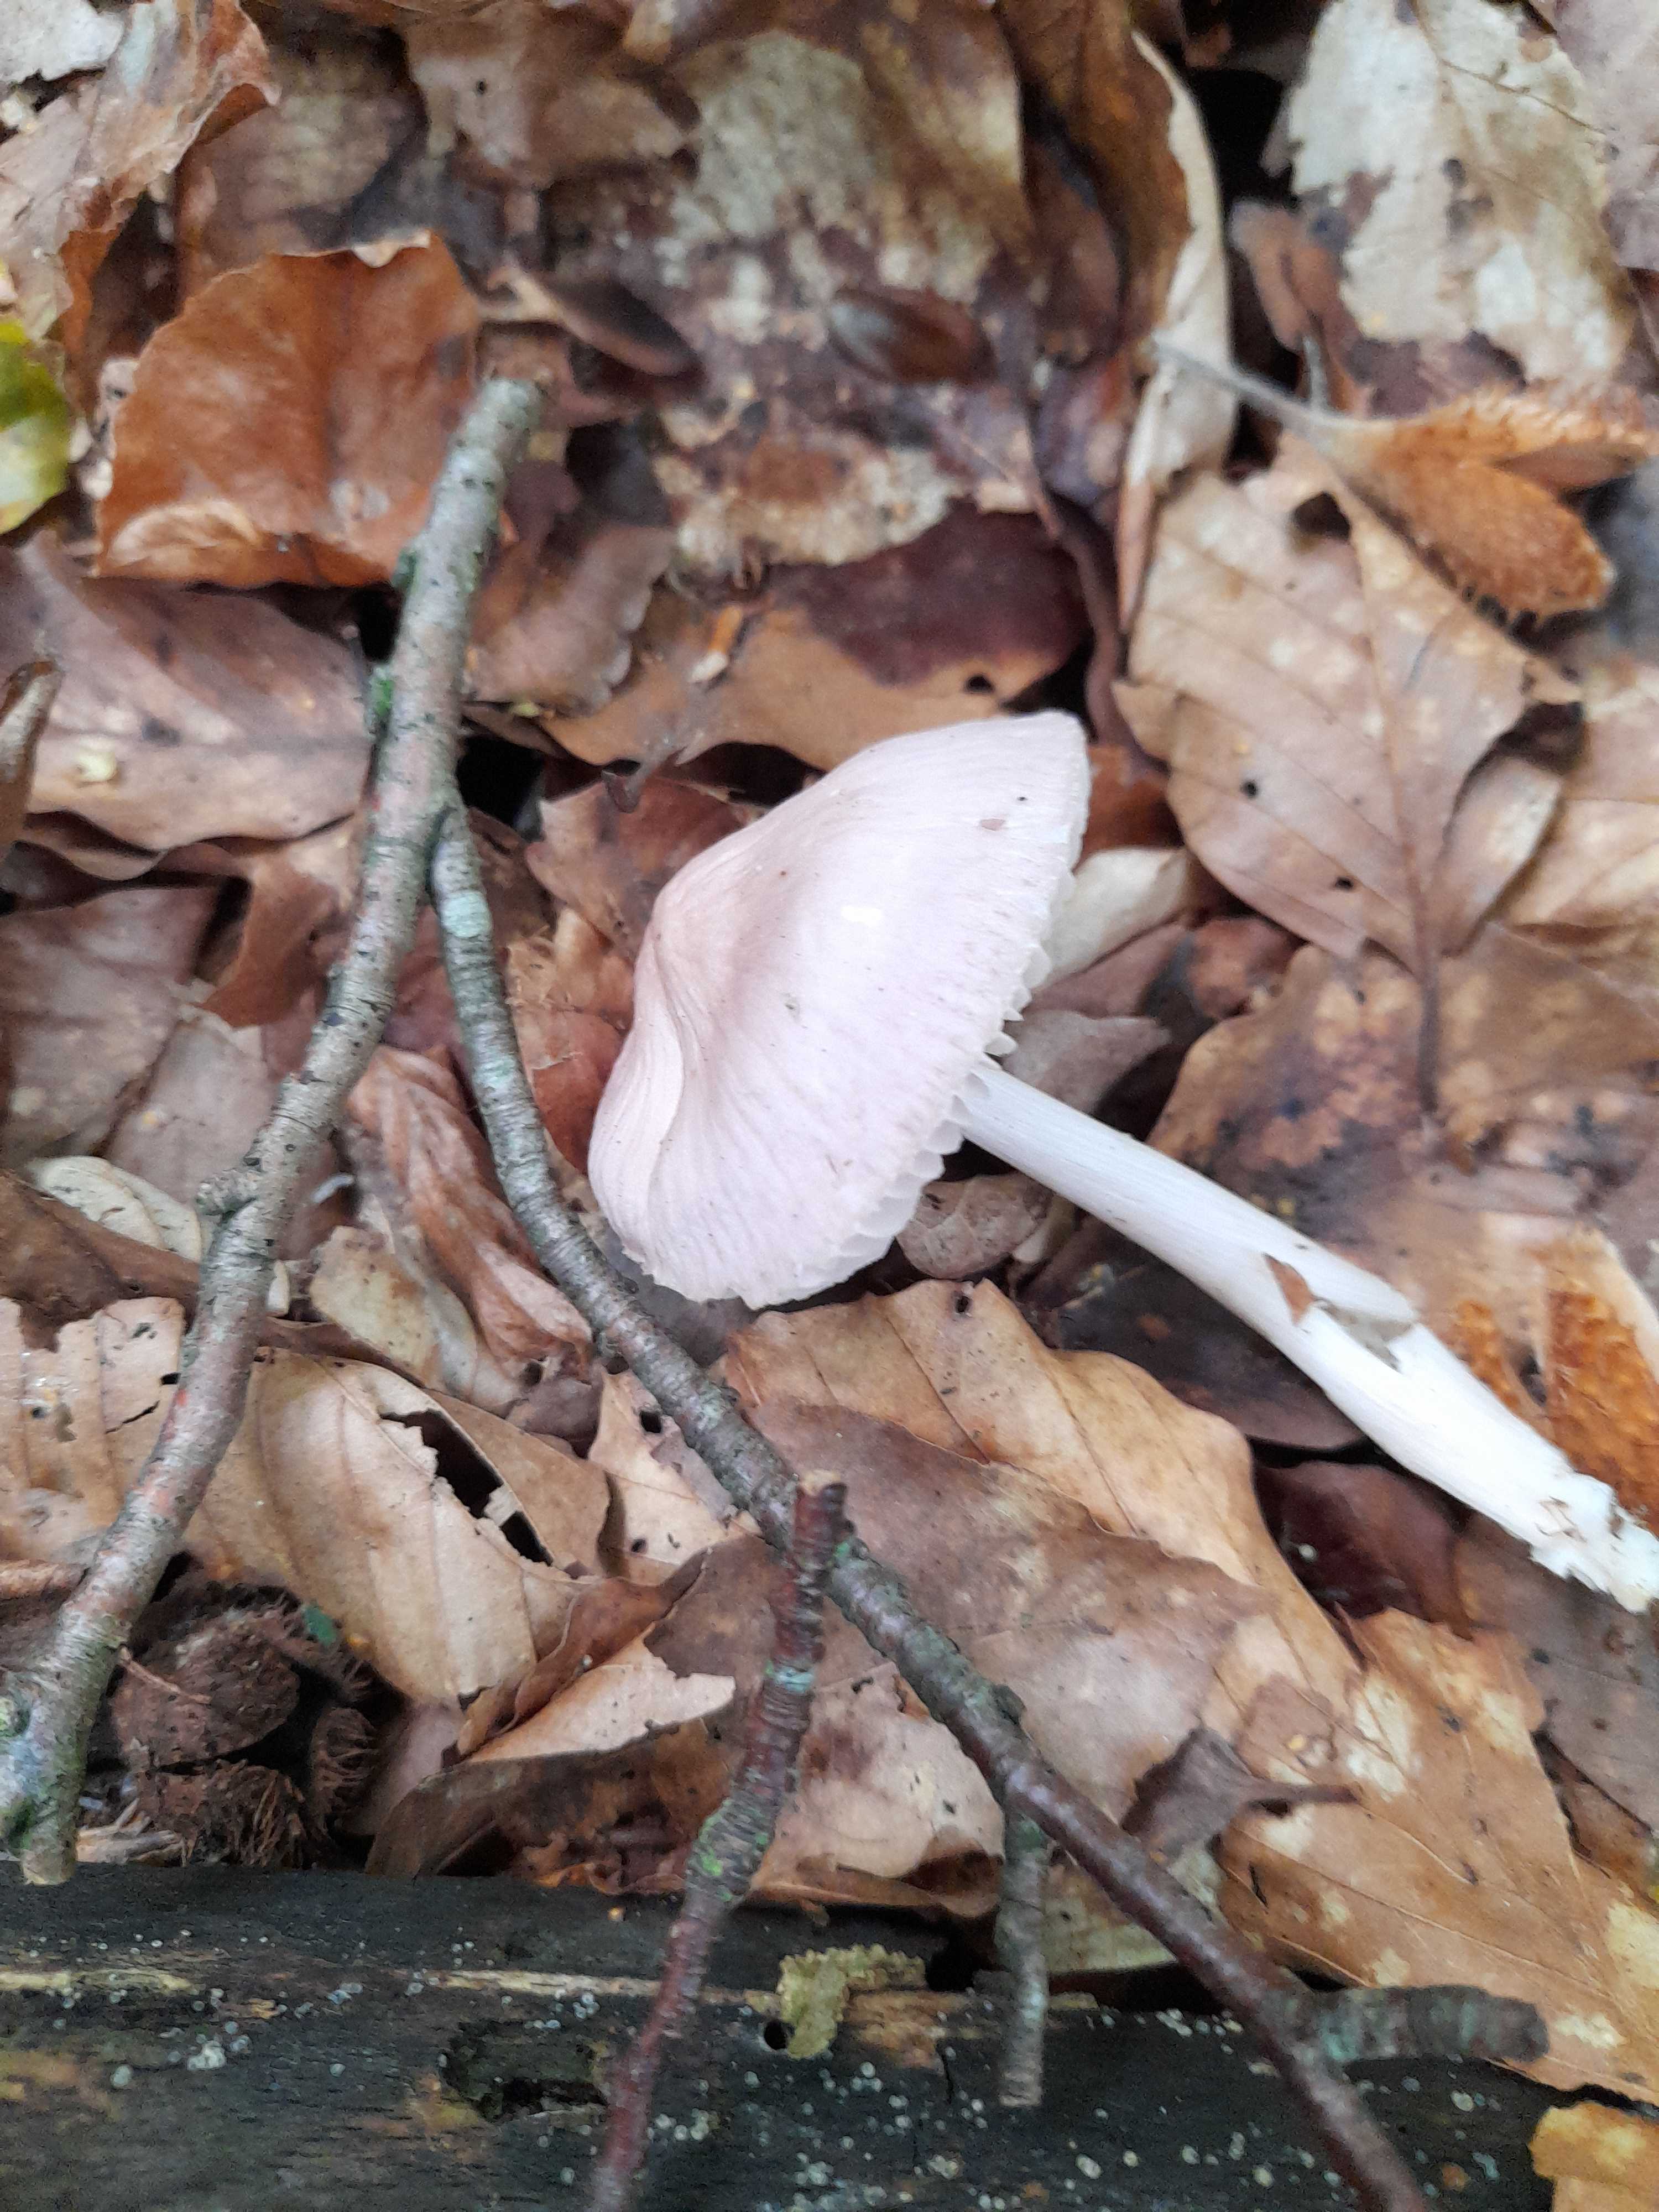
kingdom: Fungi
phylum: Basidiomycota
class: Agaricomycetes
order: Agaricales
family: Mycenaceae
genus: Mycena
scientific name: Mycena rosea
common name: rosa huesvamp
